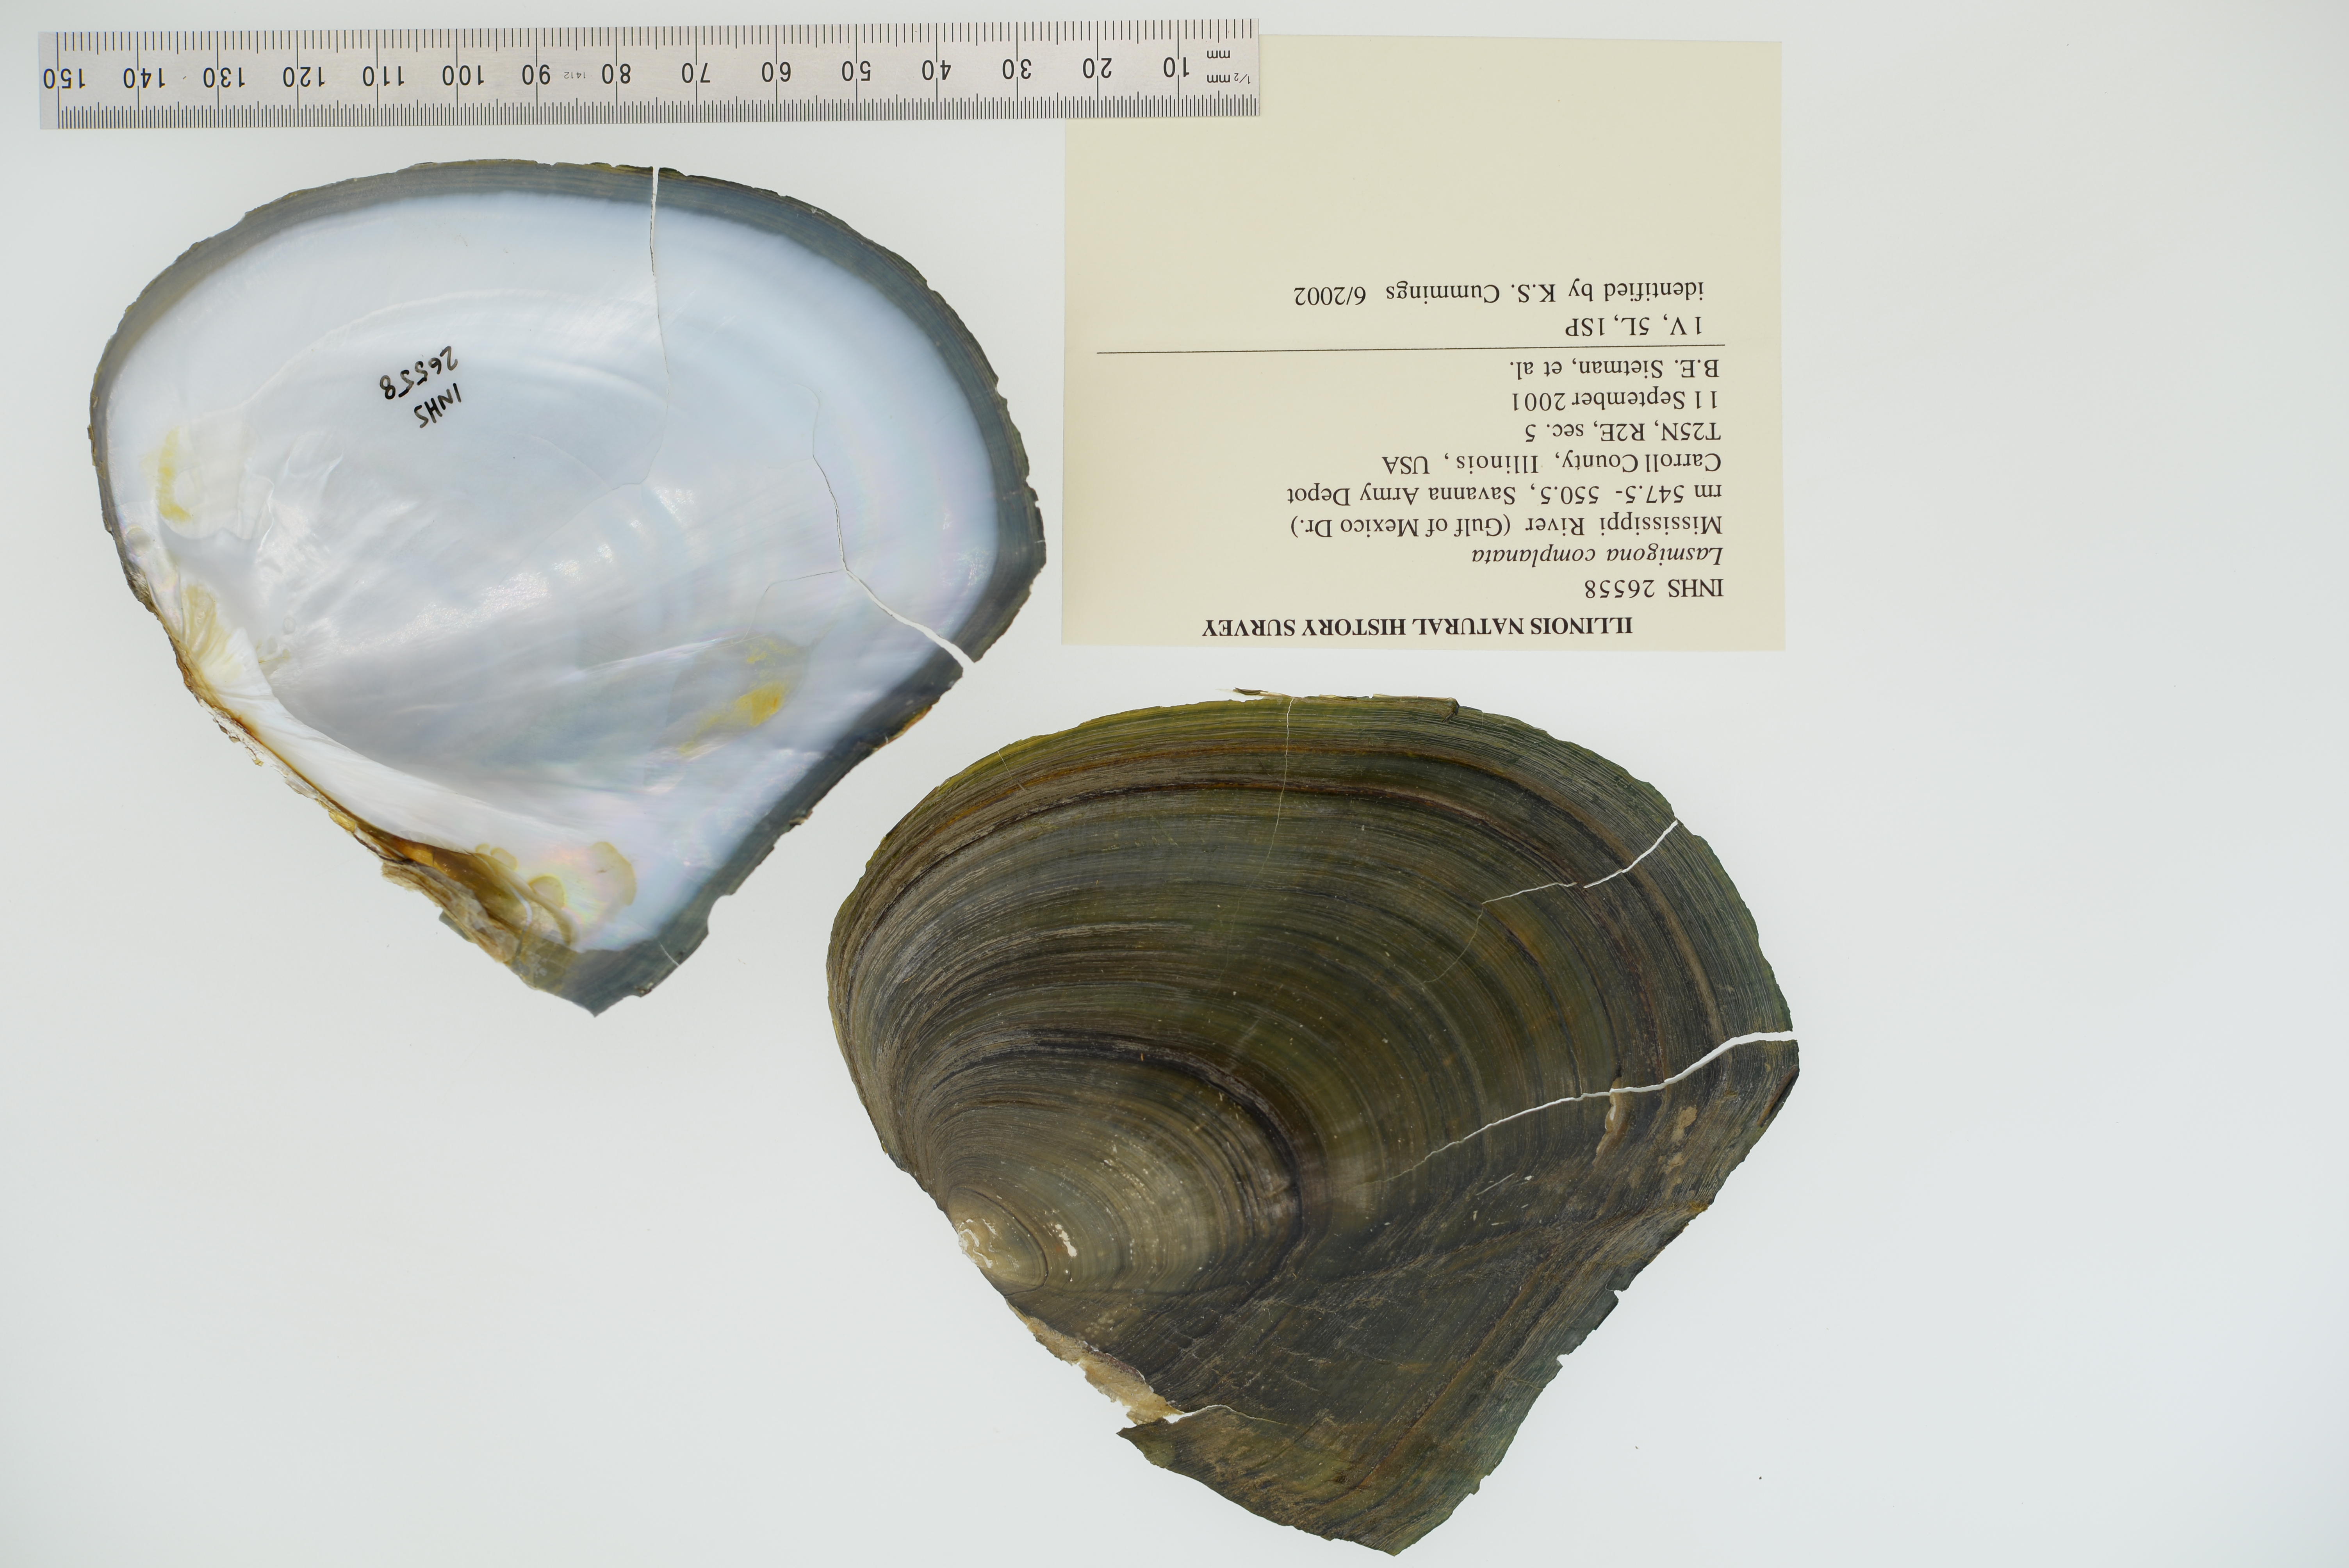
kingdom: Animalia
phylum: Mollusca
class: Bivalvia
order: Unionida
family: Unionidae
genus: Lasmigona
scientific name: Lasmigona complanata
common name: White heelsplitter
